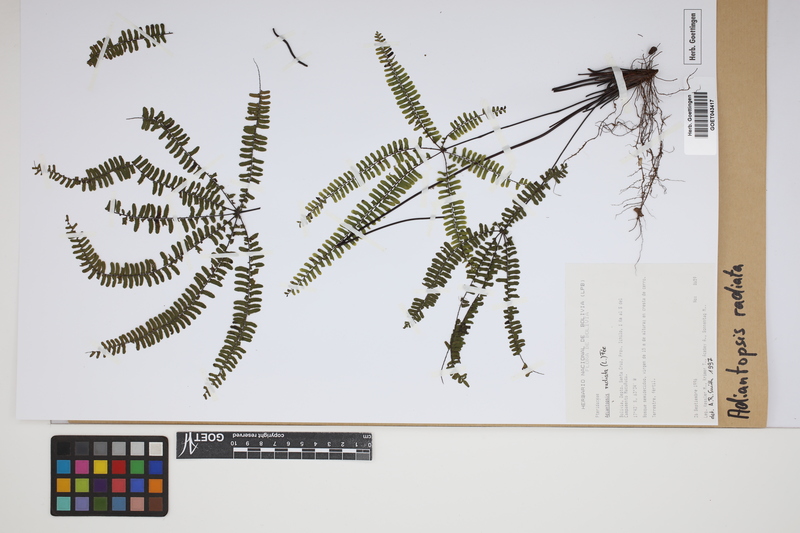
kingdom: Plantae
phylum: Tracheophyta
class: Polypodiopsida
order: Polypodiales
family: Pteridaceae
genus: Adiantopsis
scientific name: Adiantopsis radiata
